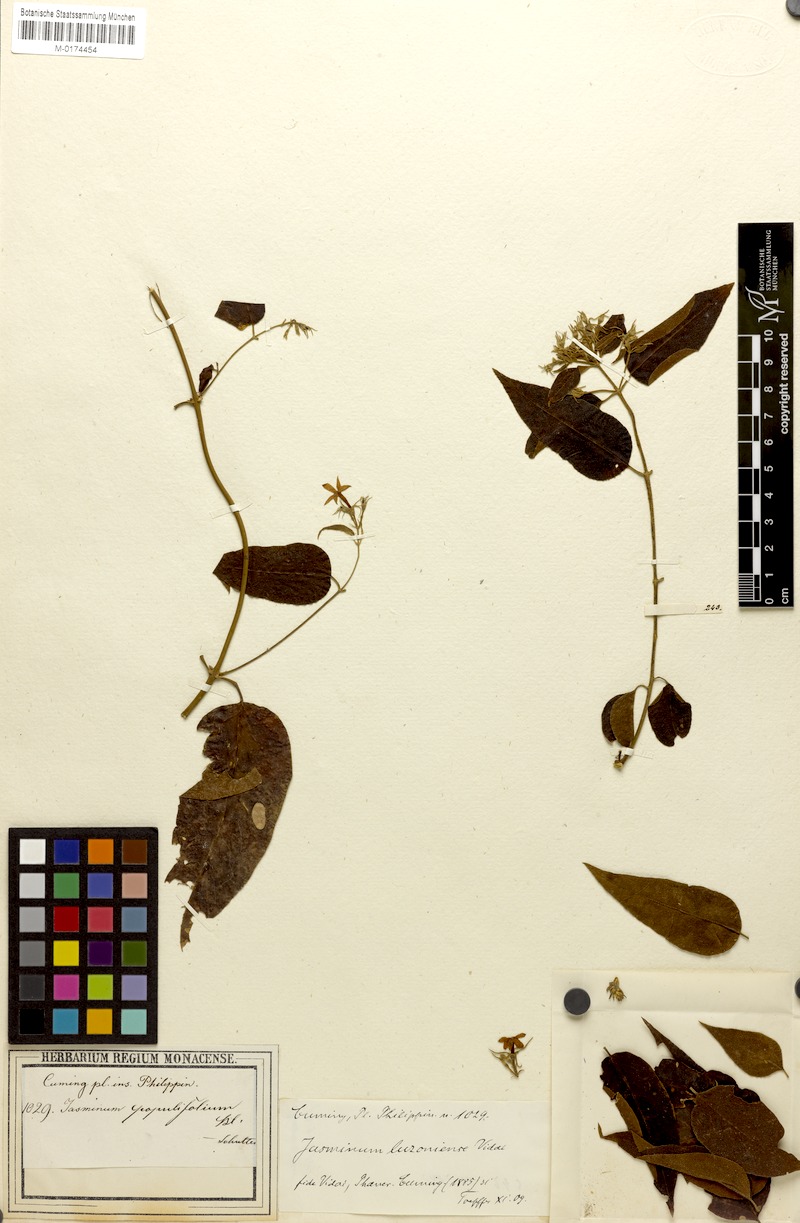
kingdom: Plantae
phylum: Tracheophyta
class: Magnoliopsida
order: Lamiales
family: Oleaceae
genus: Jasminum
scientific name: Jasminum populifolium
